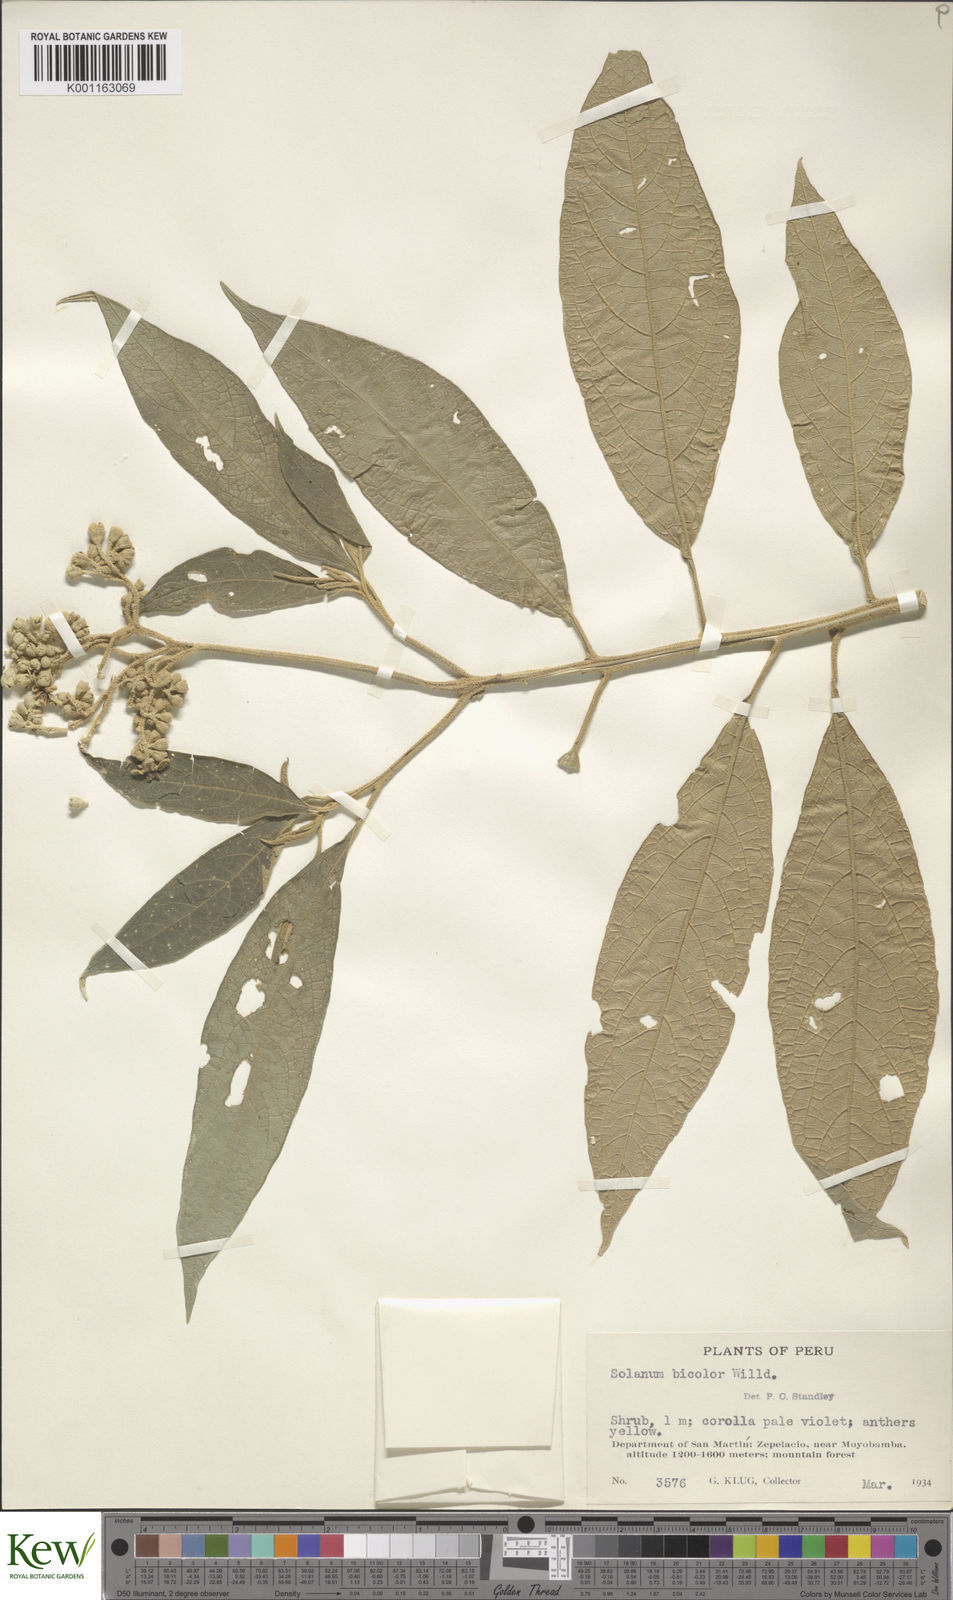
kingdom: Plantae
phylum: Tracheophyta
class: Magnoliopsida
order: Solanales
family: Solanaceae
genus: Solanum
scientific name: Solanum bicolor
